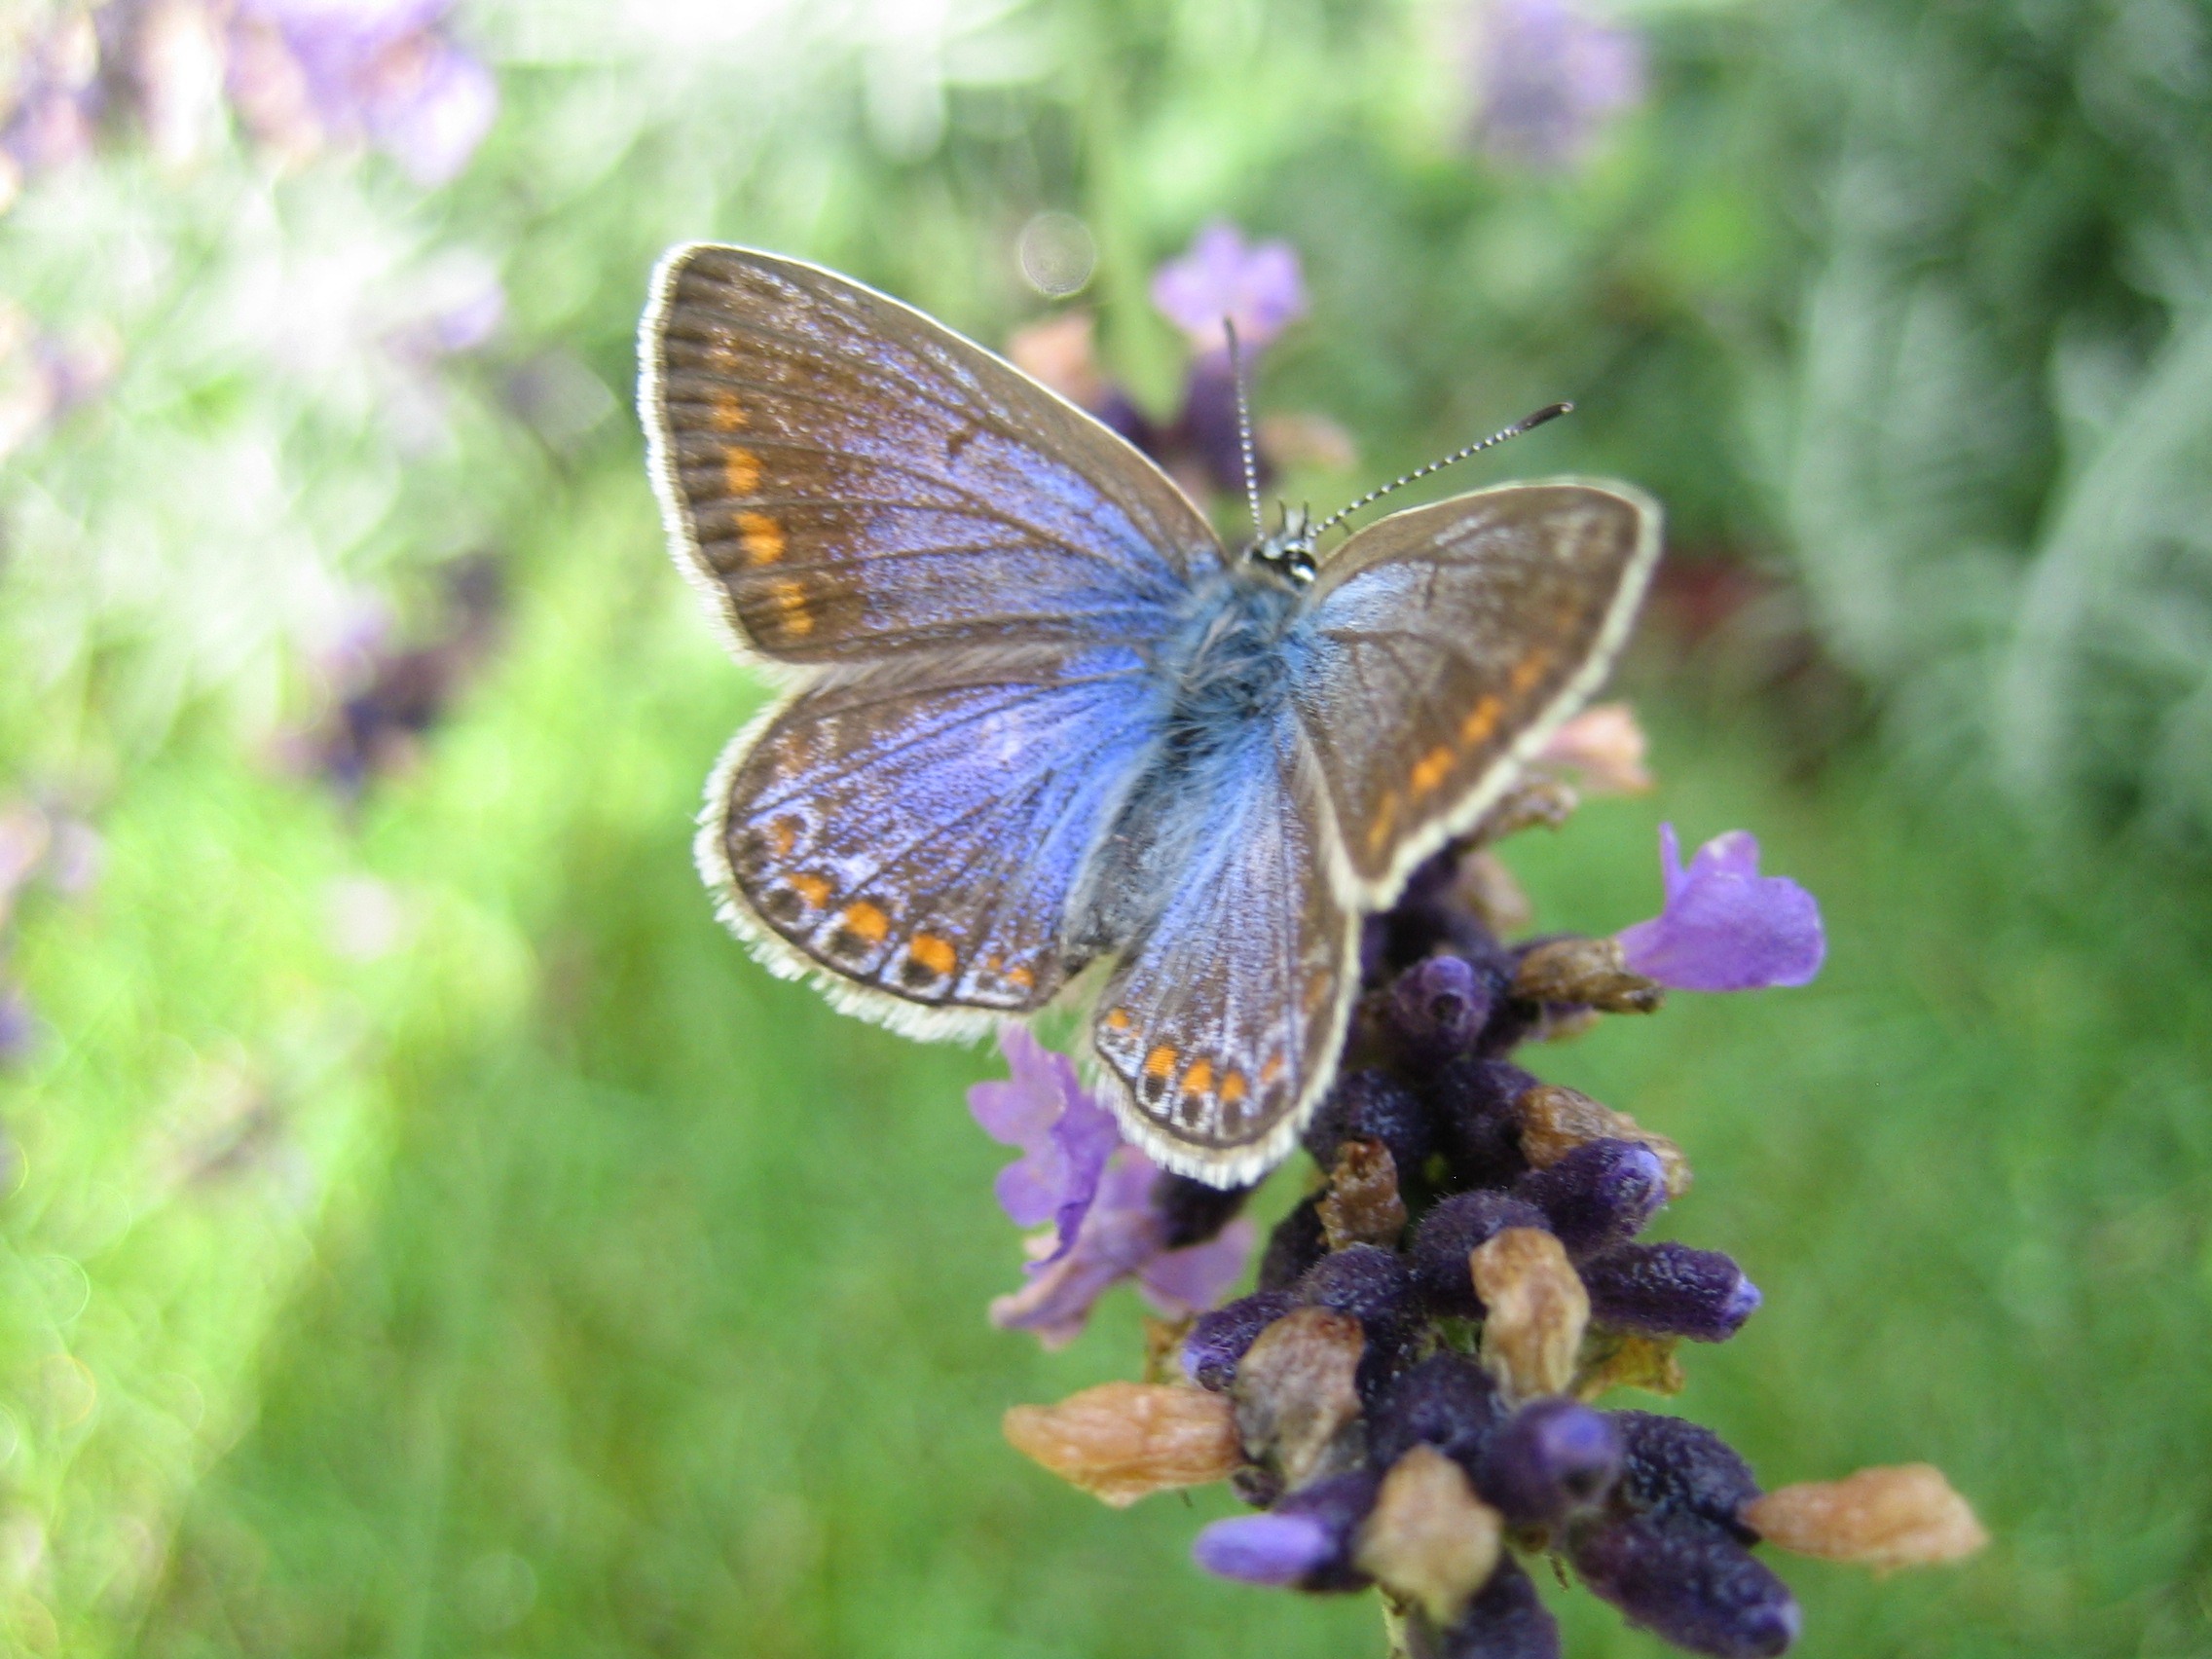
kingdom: Animalia
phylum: Arthropoda
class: Insecta
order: Lepidoptera
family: Lycaenidae
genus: Polyommatus
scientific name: Polyommatus icarus
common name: Almindelig blåfugl
